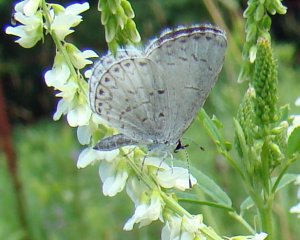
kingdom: Animalia
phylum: Arthropoda
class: Insecta
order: Lepidoptera
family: Lycaenidae
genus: Cyaniris
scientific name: Cyaniris neglecta
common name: Summer Azure
